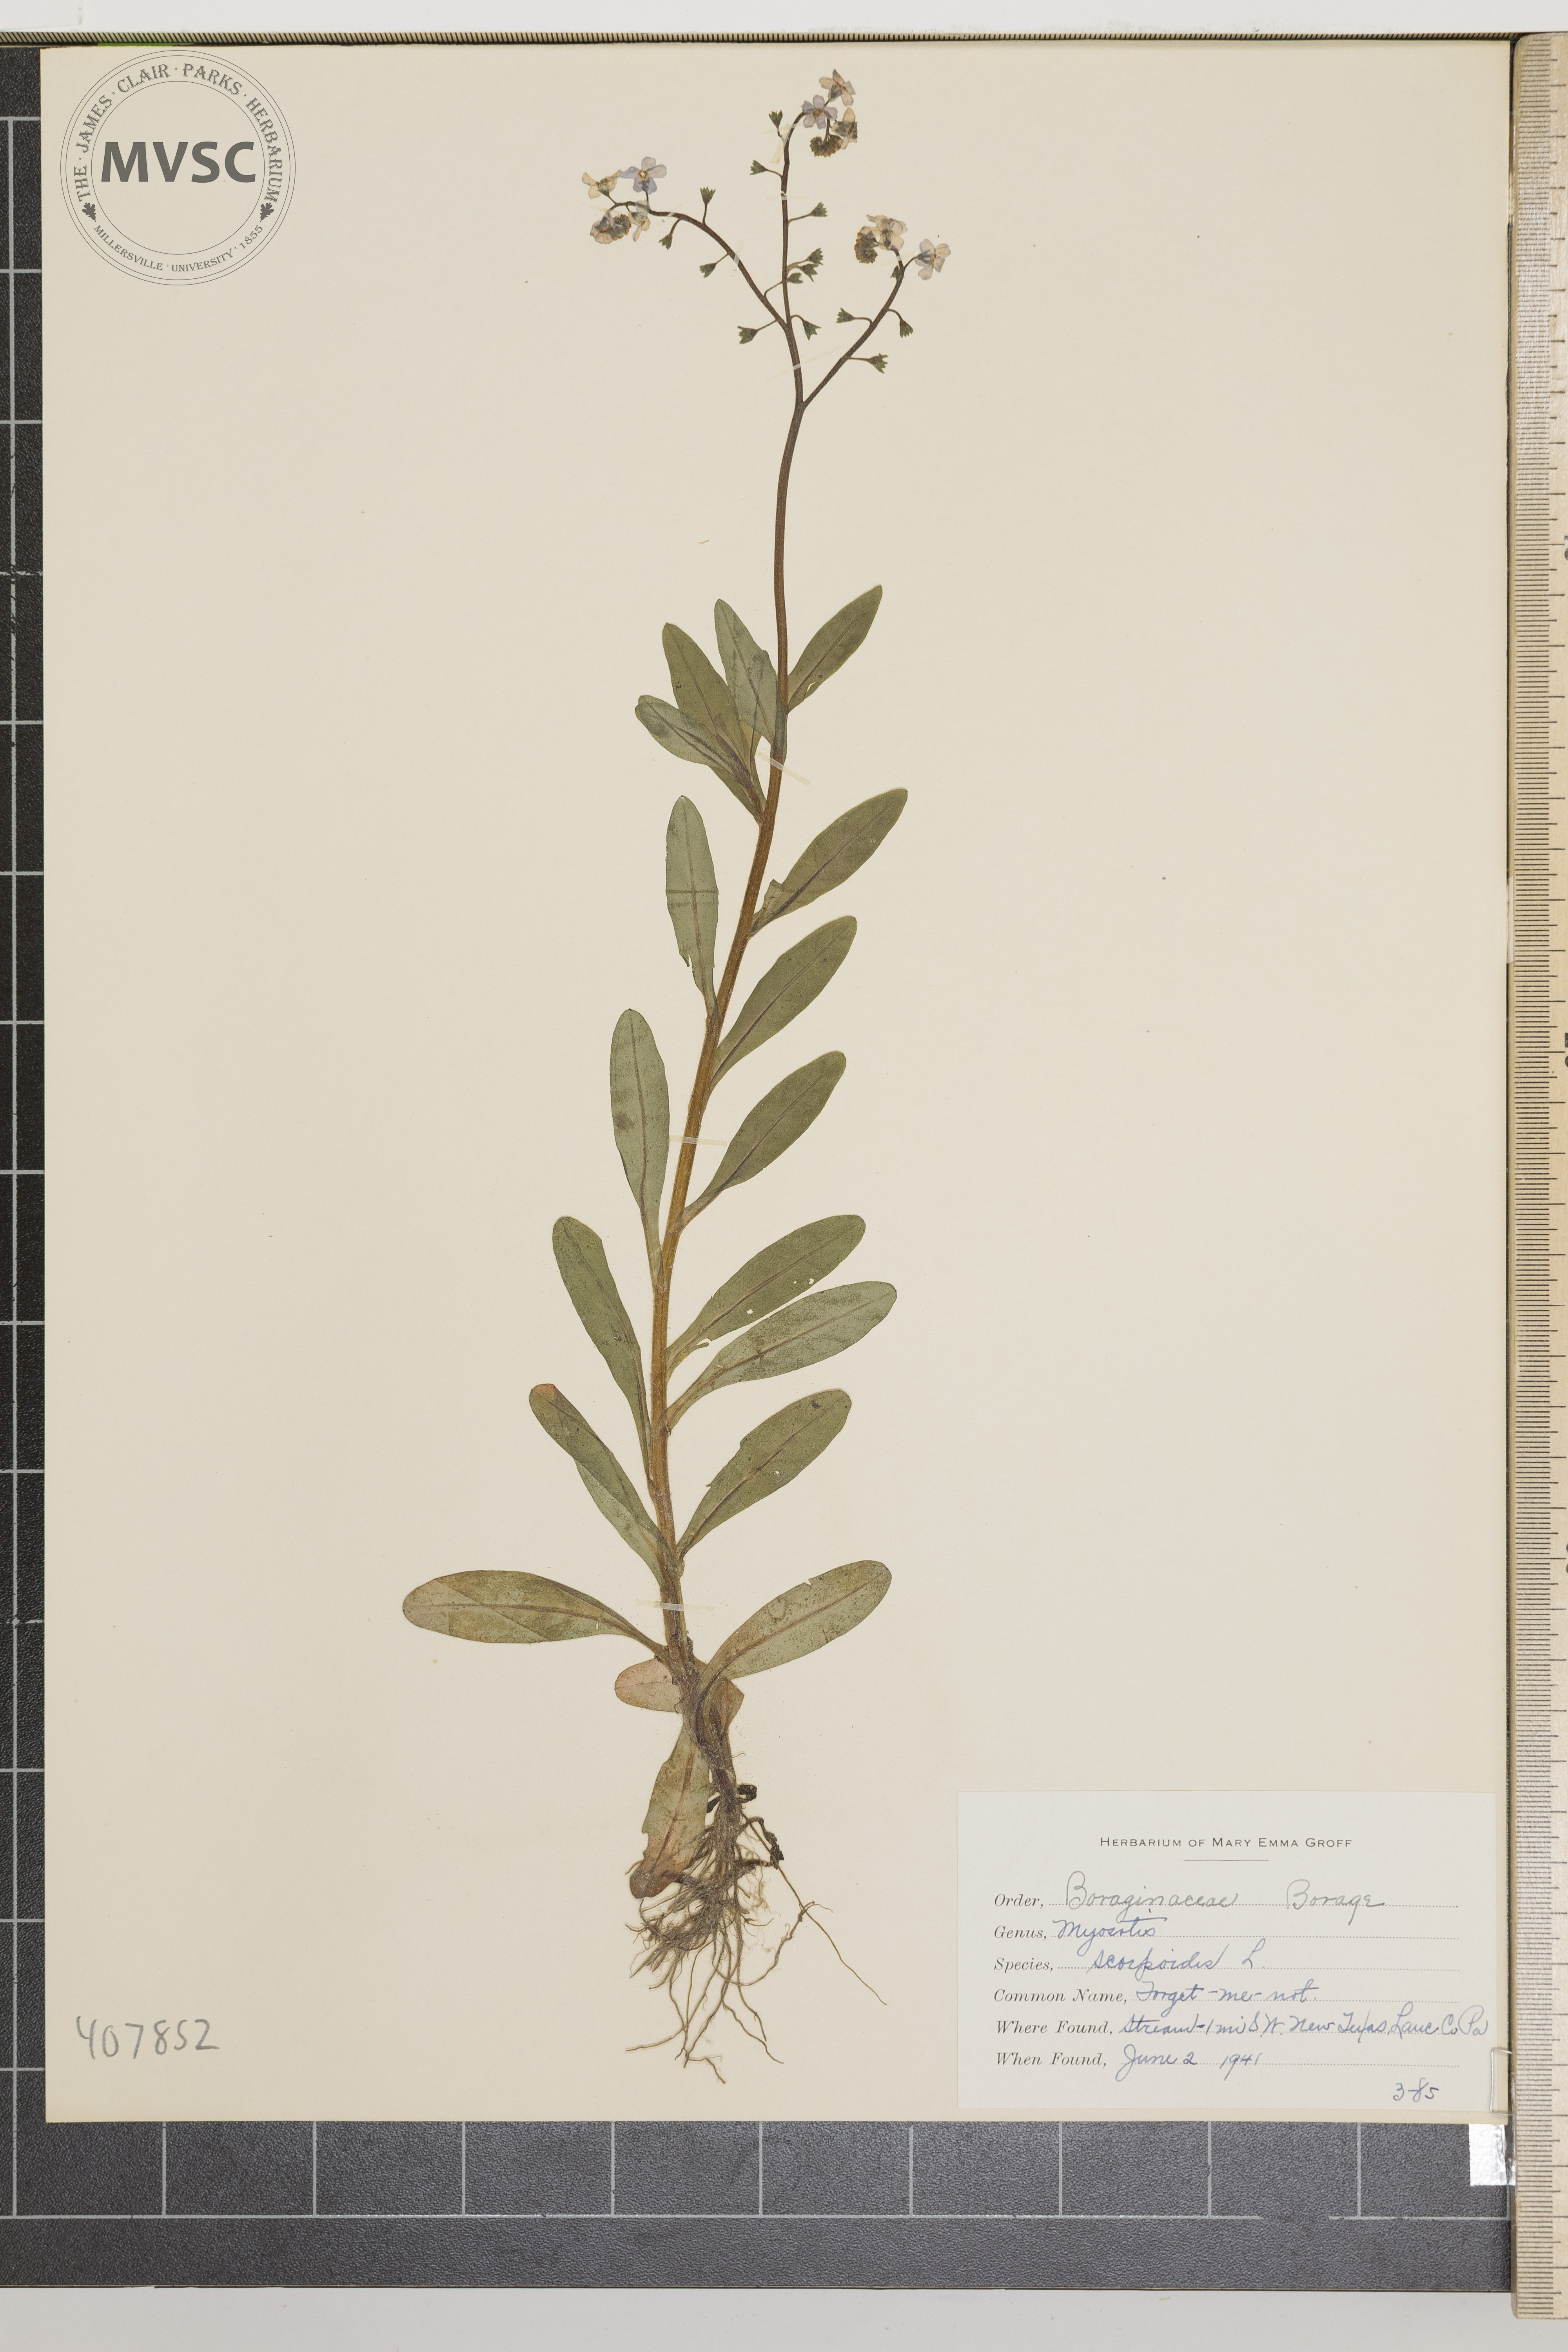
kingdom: Plantae
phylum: Tracheophyta
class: Magnoliopsida
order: Boraginales
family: Boraginaceae
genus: Myosotis
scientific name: Myosotis scorpioides
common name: forget-me-not
